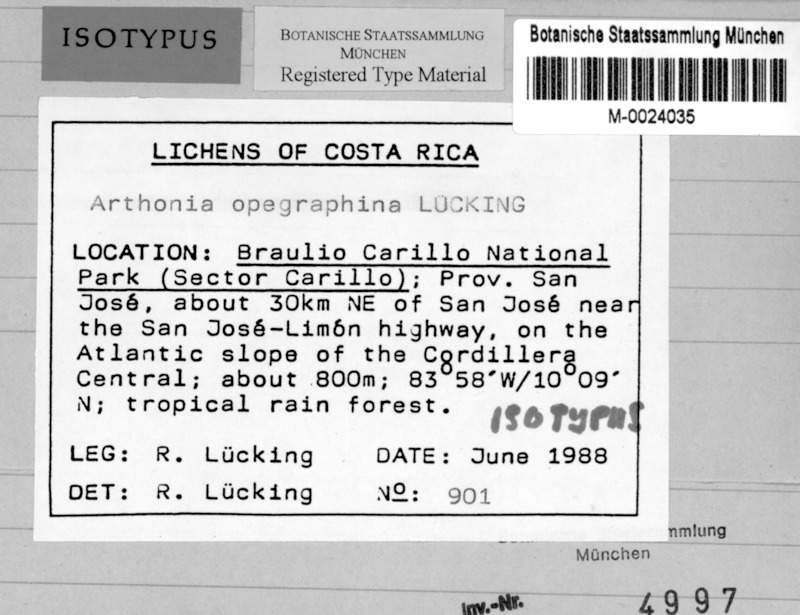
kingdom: Fungi
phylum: Ascomycota
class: Arthoniomycetes
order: Arthoniales
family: Arthoniaceae
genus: Arthonia
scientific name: Arthonia opegraphina
